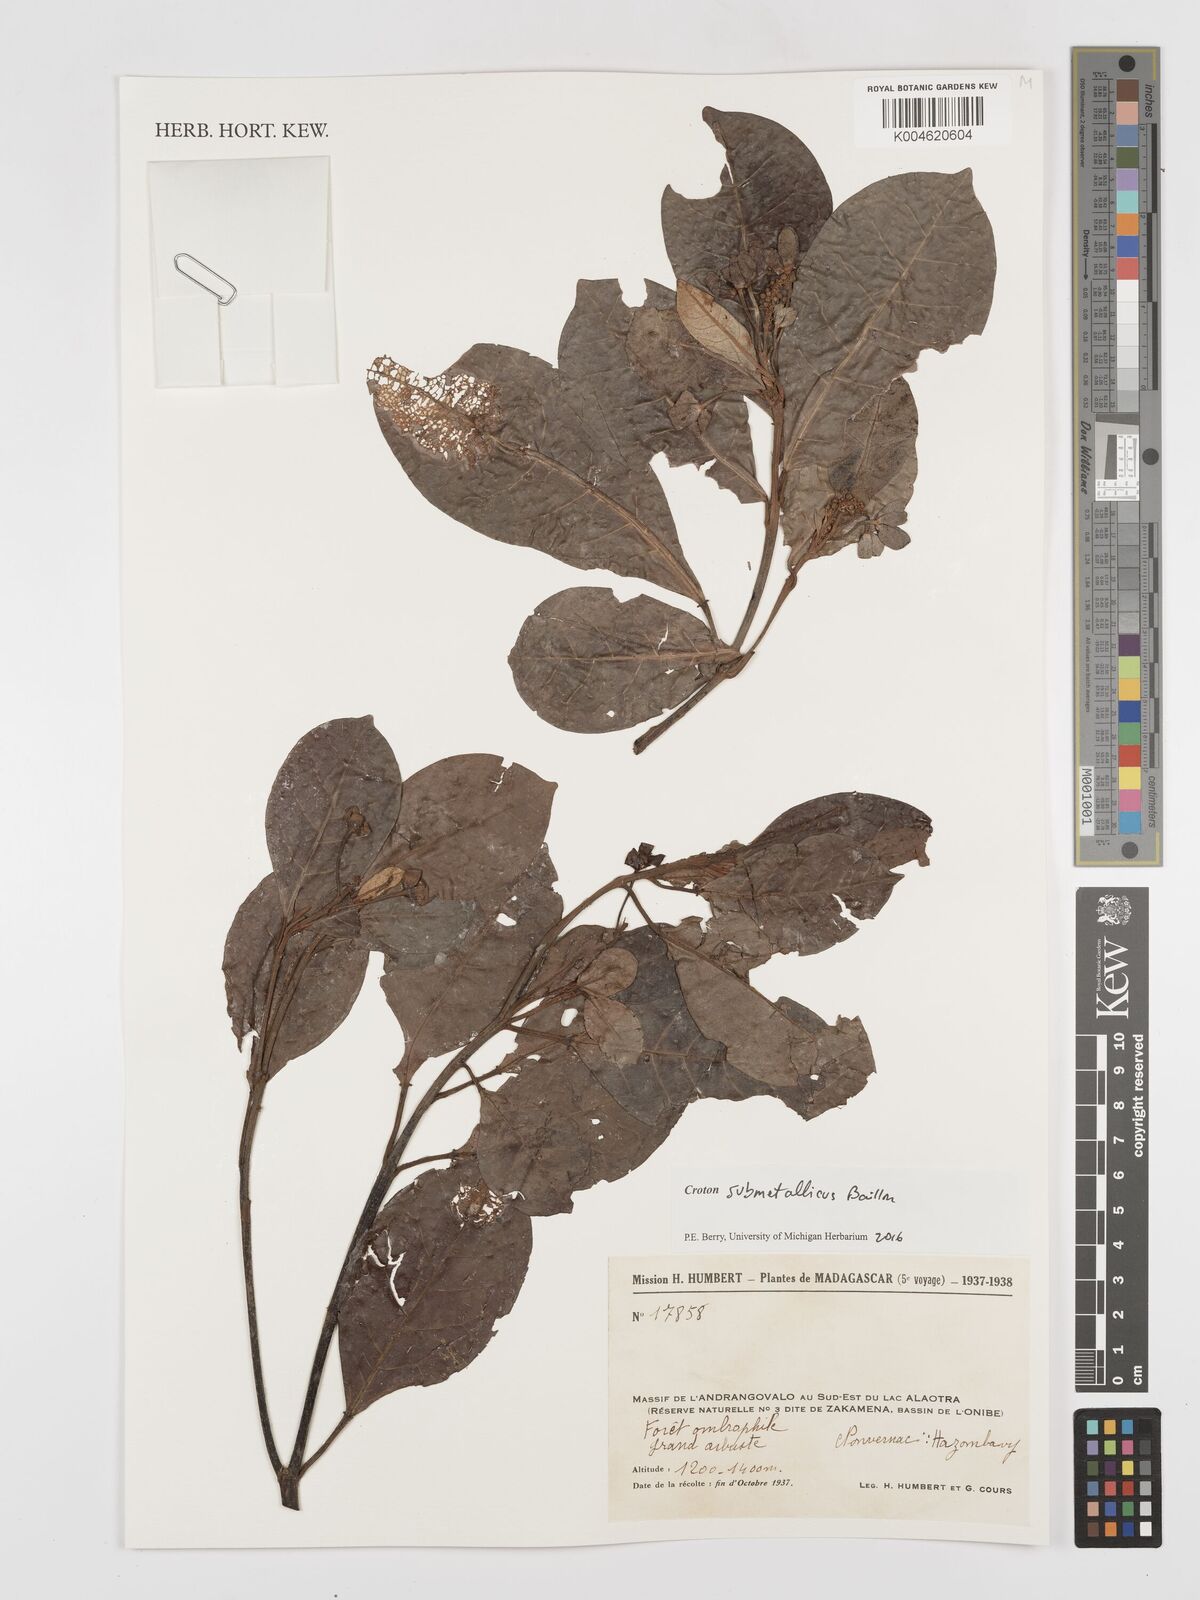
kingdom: Plantae
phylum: Tracheophyta
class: Magnoliopsida
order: Malpighiales
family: Euphorbiaceae
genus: Croton
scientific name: Croton submetallicus
